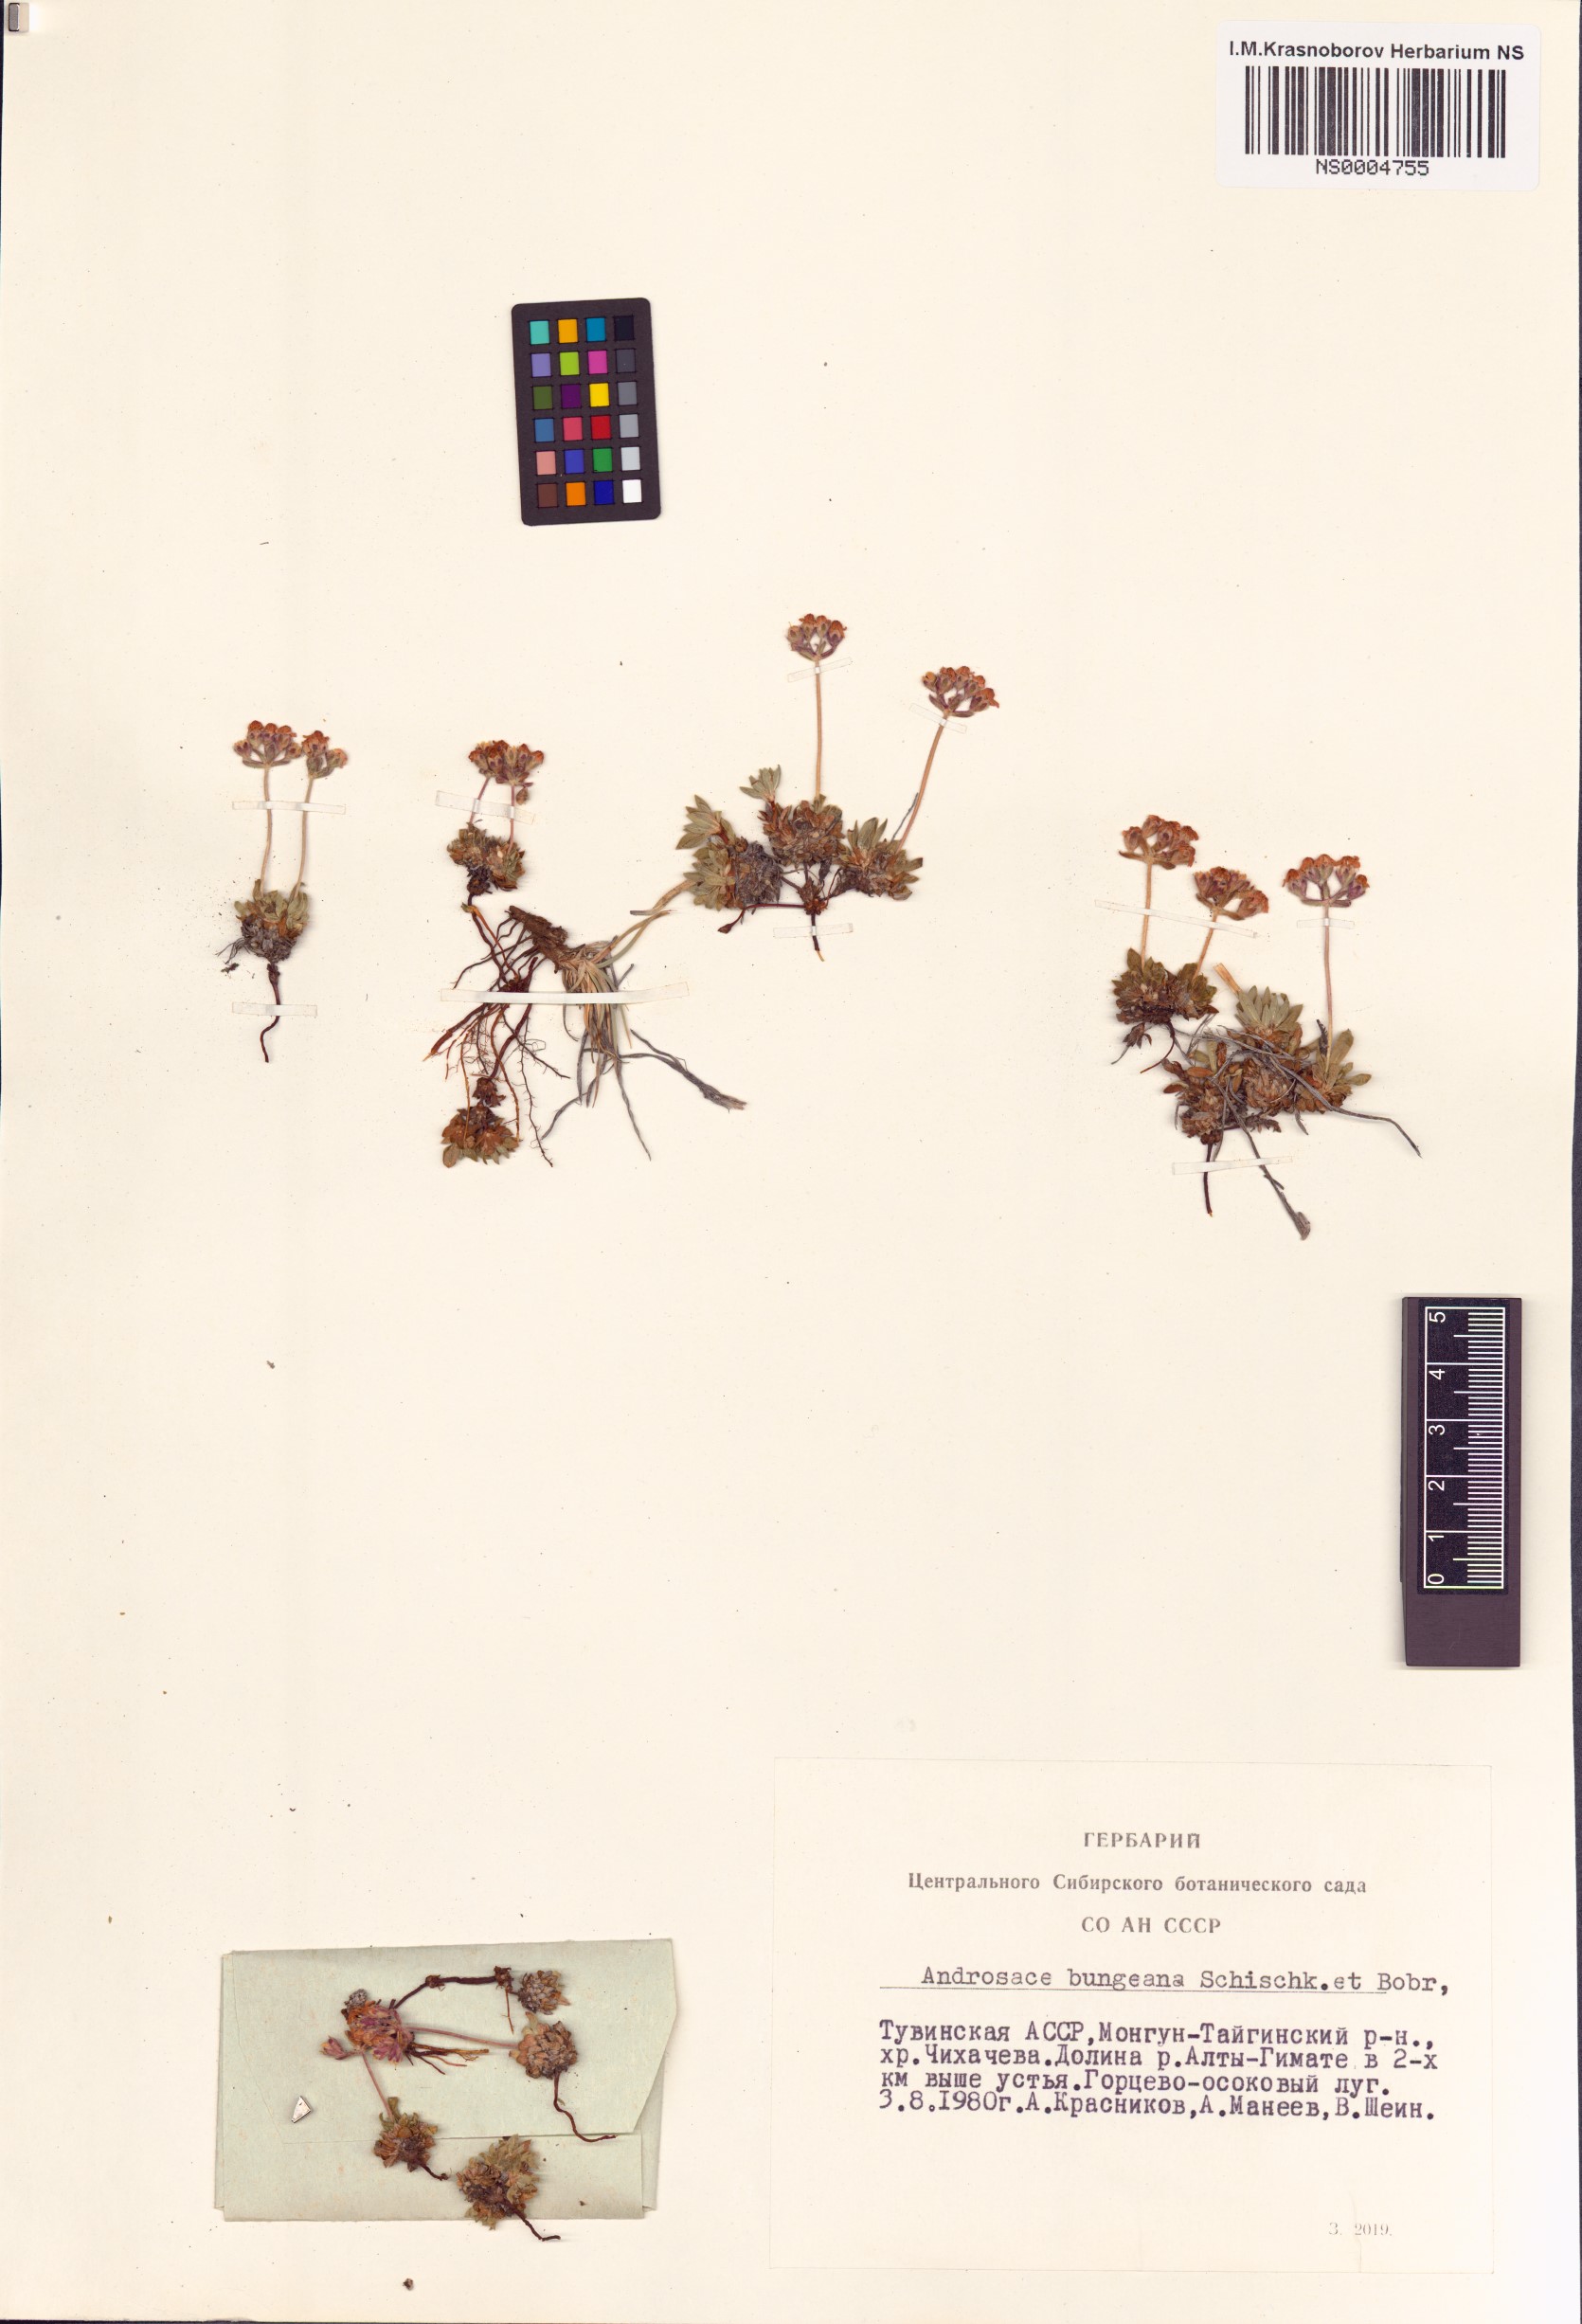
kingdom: Plantae
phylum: Tracheophyta
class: Magnoliopsida
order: Ericales
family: Primulaceae
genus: Androsace
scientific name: Androsace bungeana
